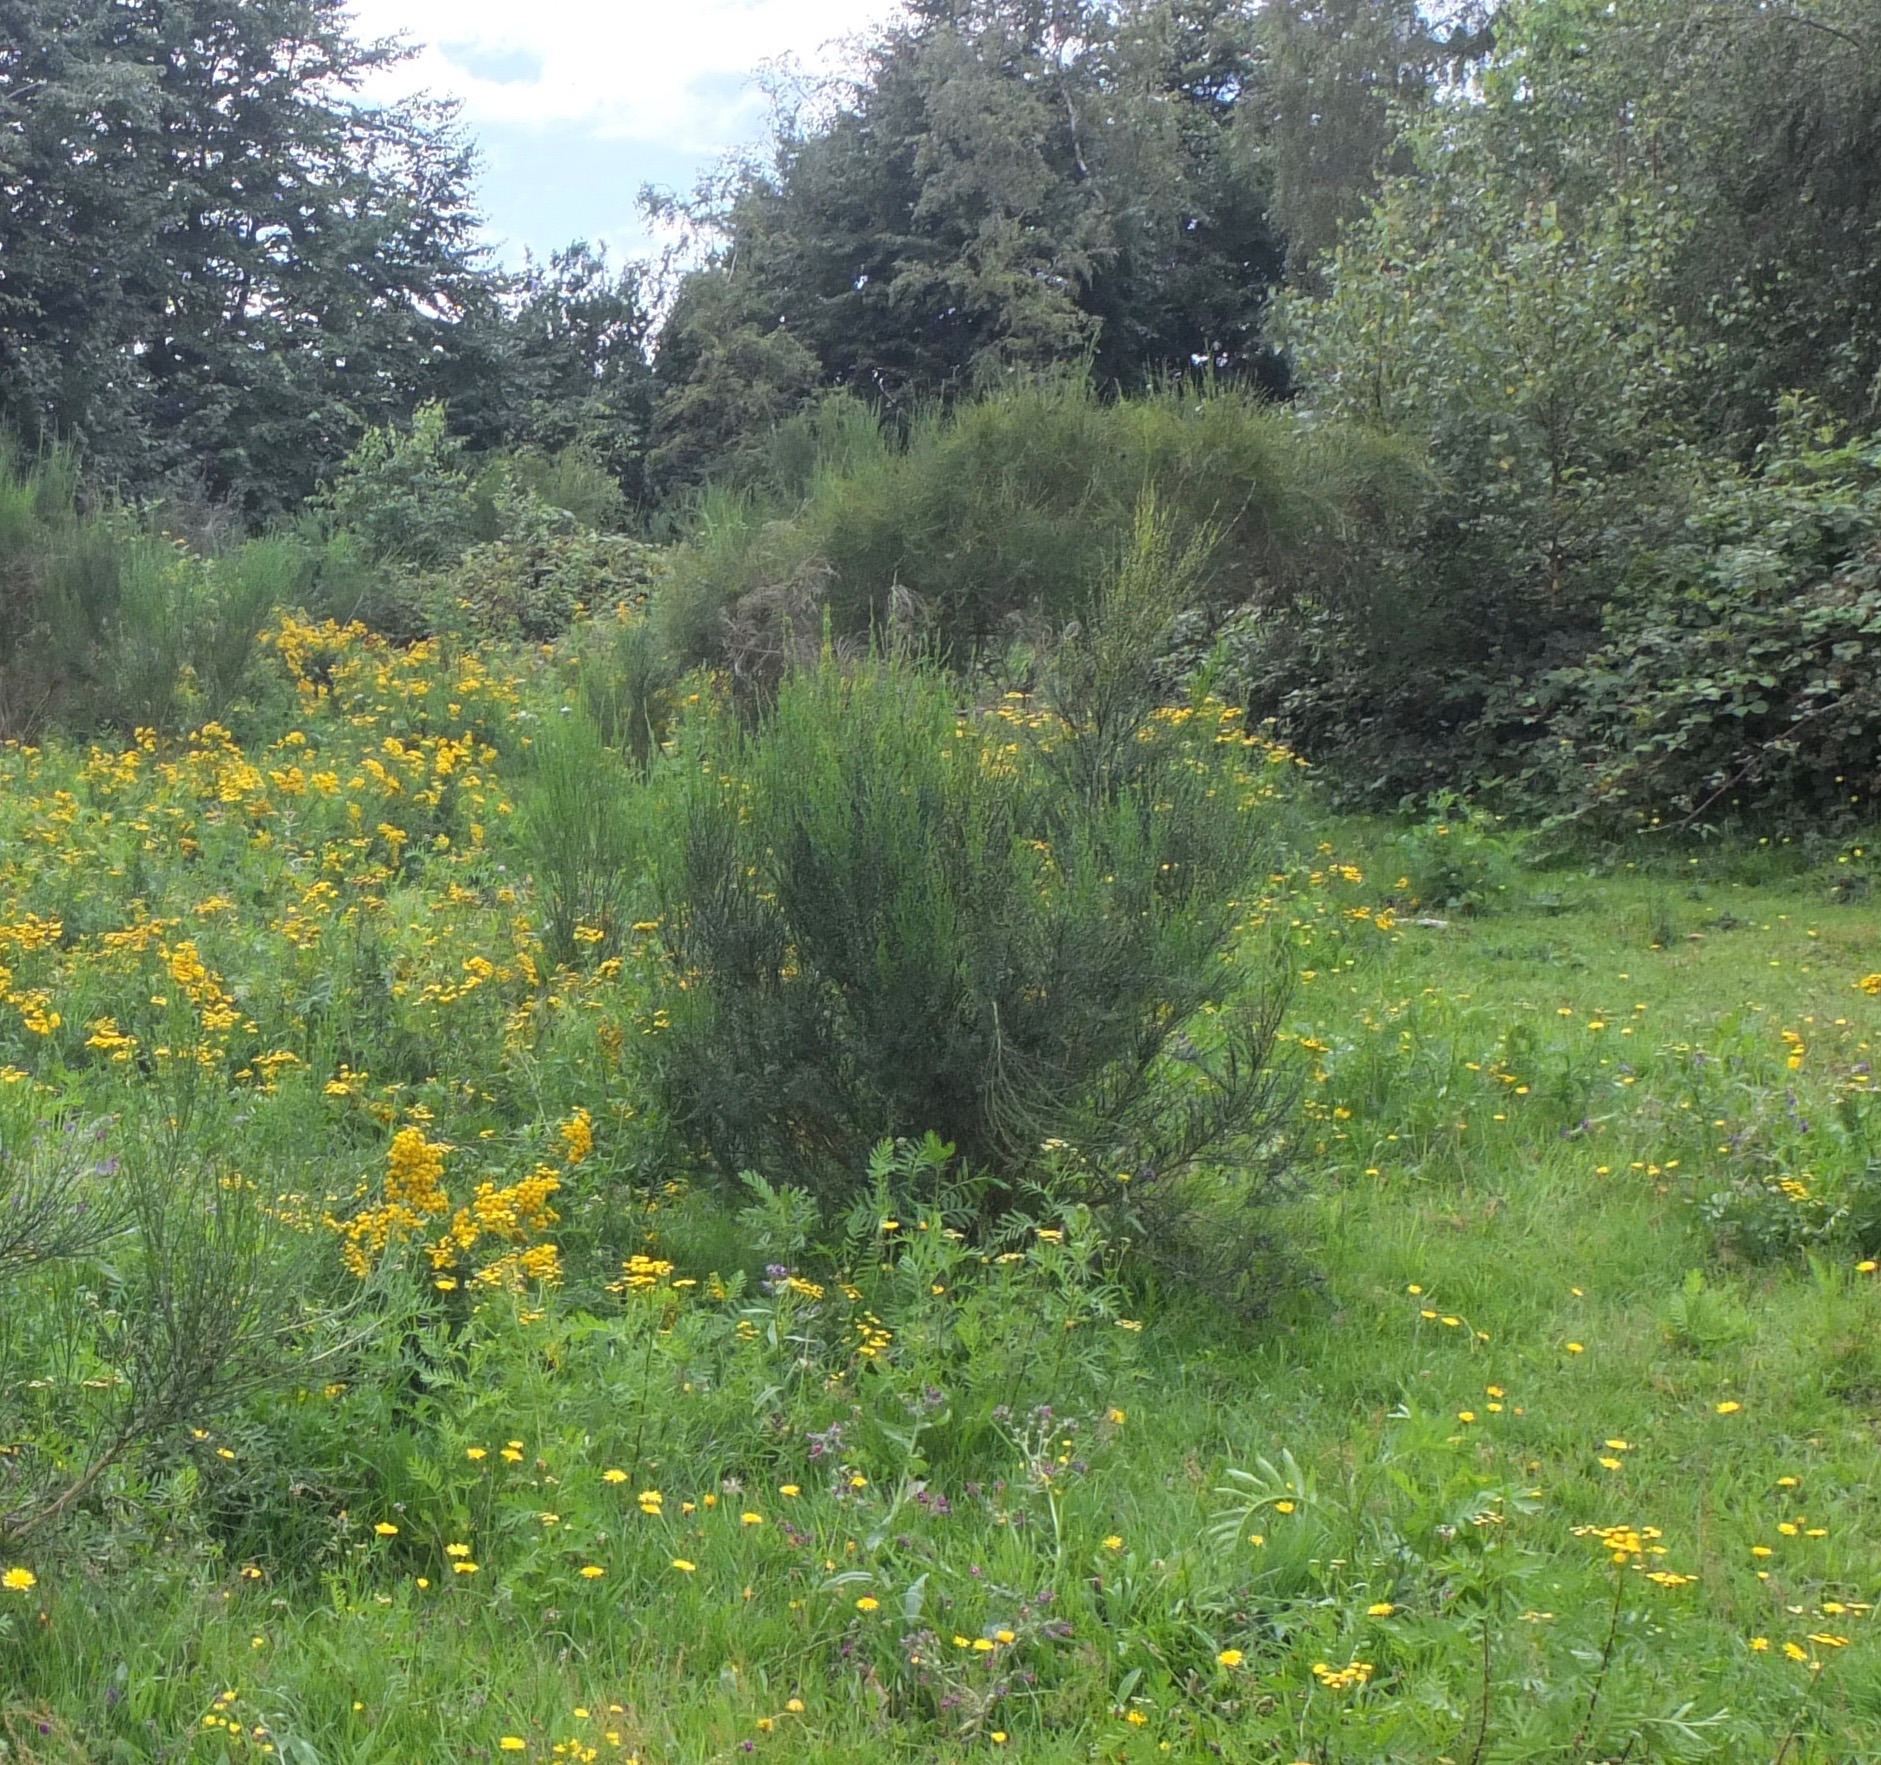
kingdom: Plantae
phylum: Tracheophyta
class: Magnoliopsida
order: Fabales
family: Fabaceae
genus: Cytisus
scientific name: Cytisus scoparius
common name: Almindelig gyvel
